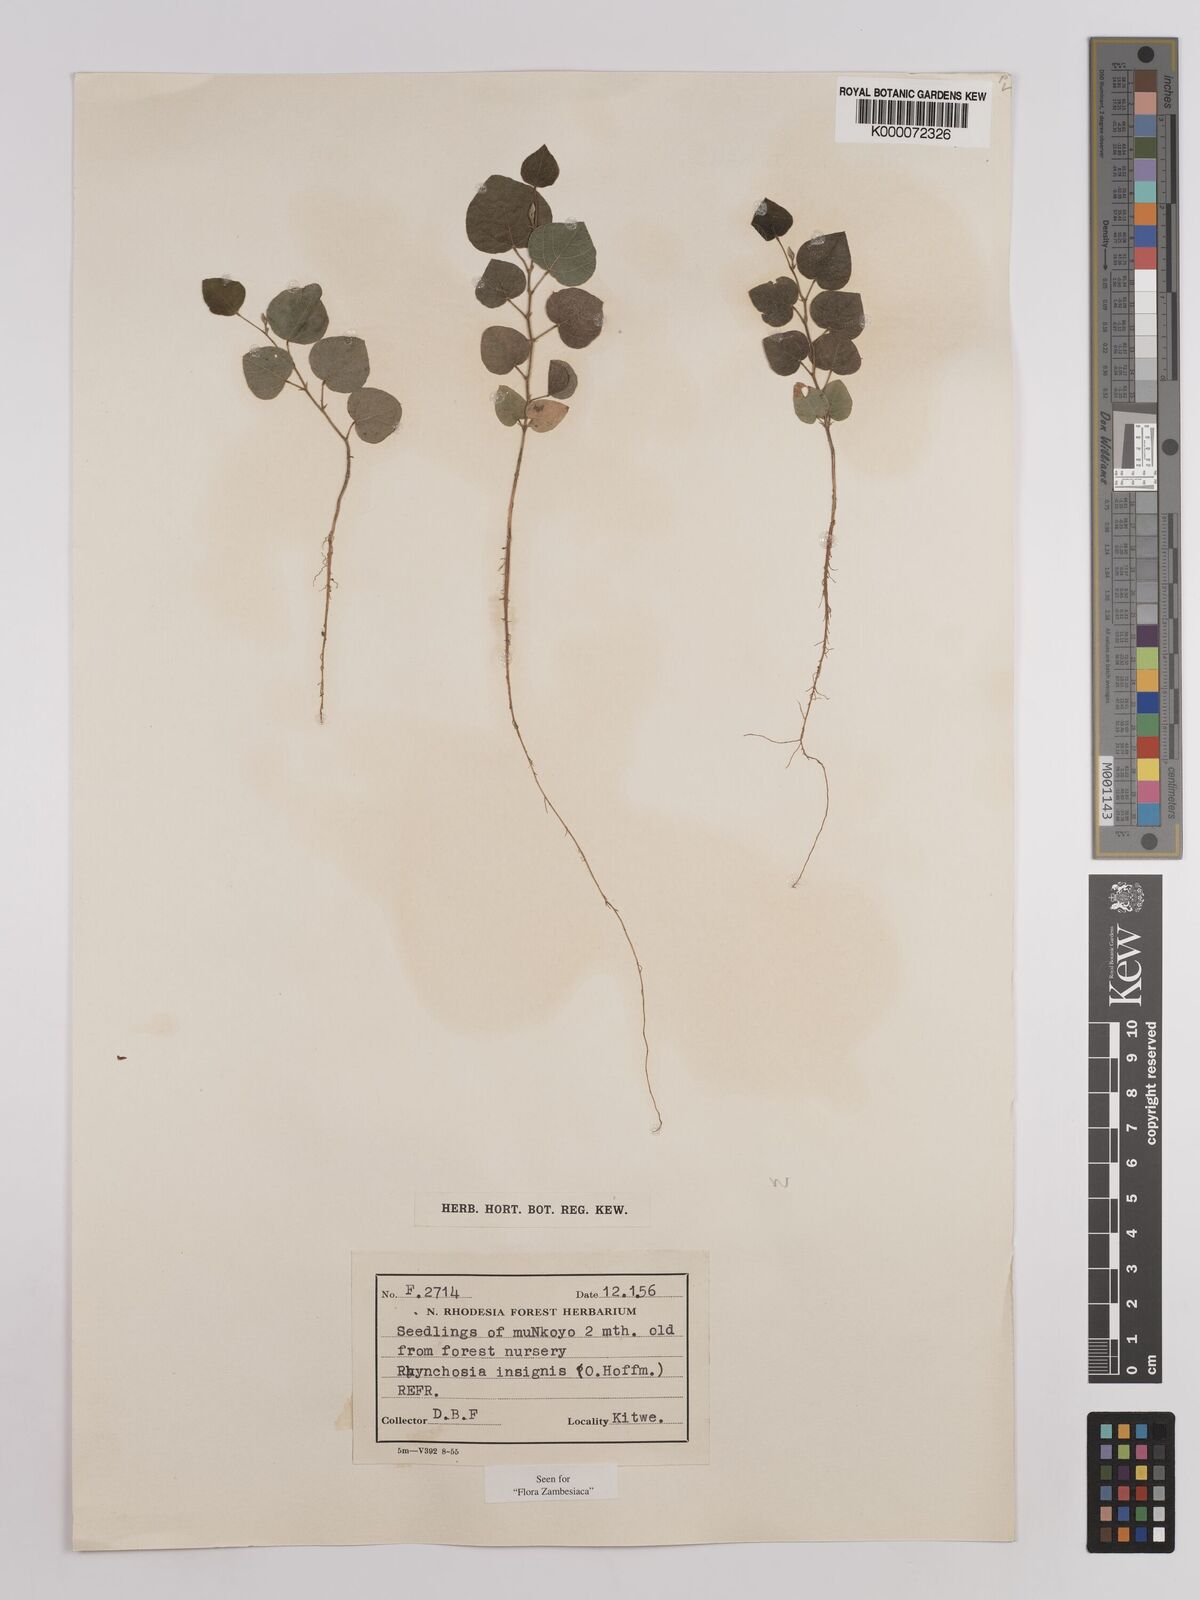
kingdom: Plantae
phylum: Tracheophyta
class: Magnoliopsida
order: Fabales
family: Fabaceae
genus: Rhynchosia
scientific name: Rhynchosia insignis
